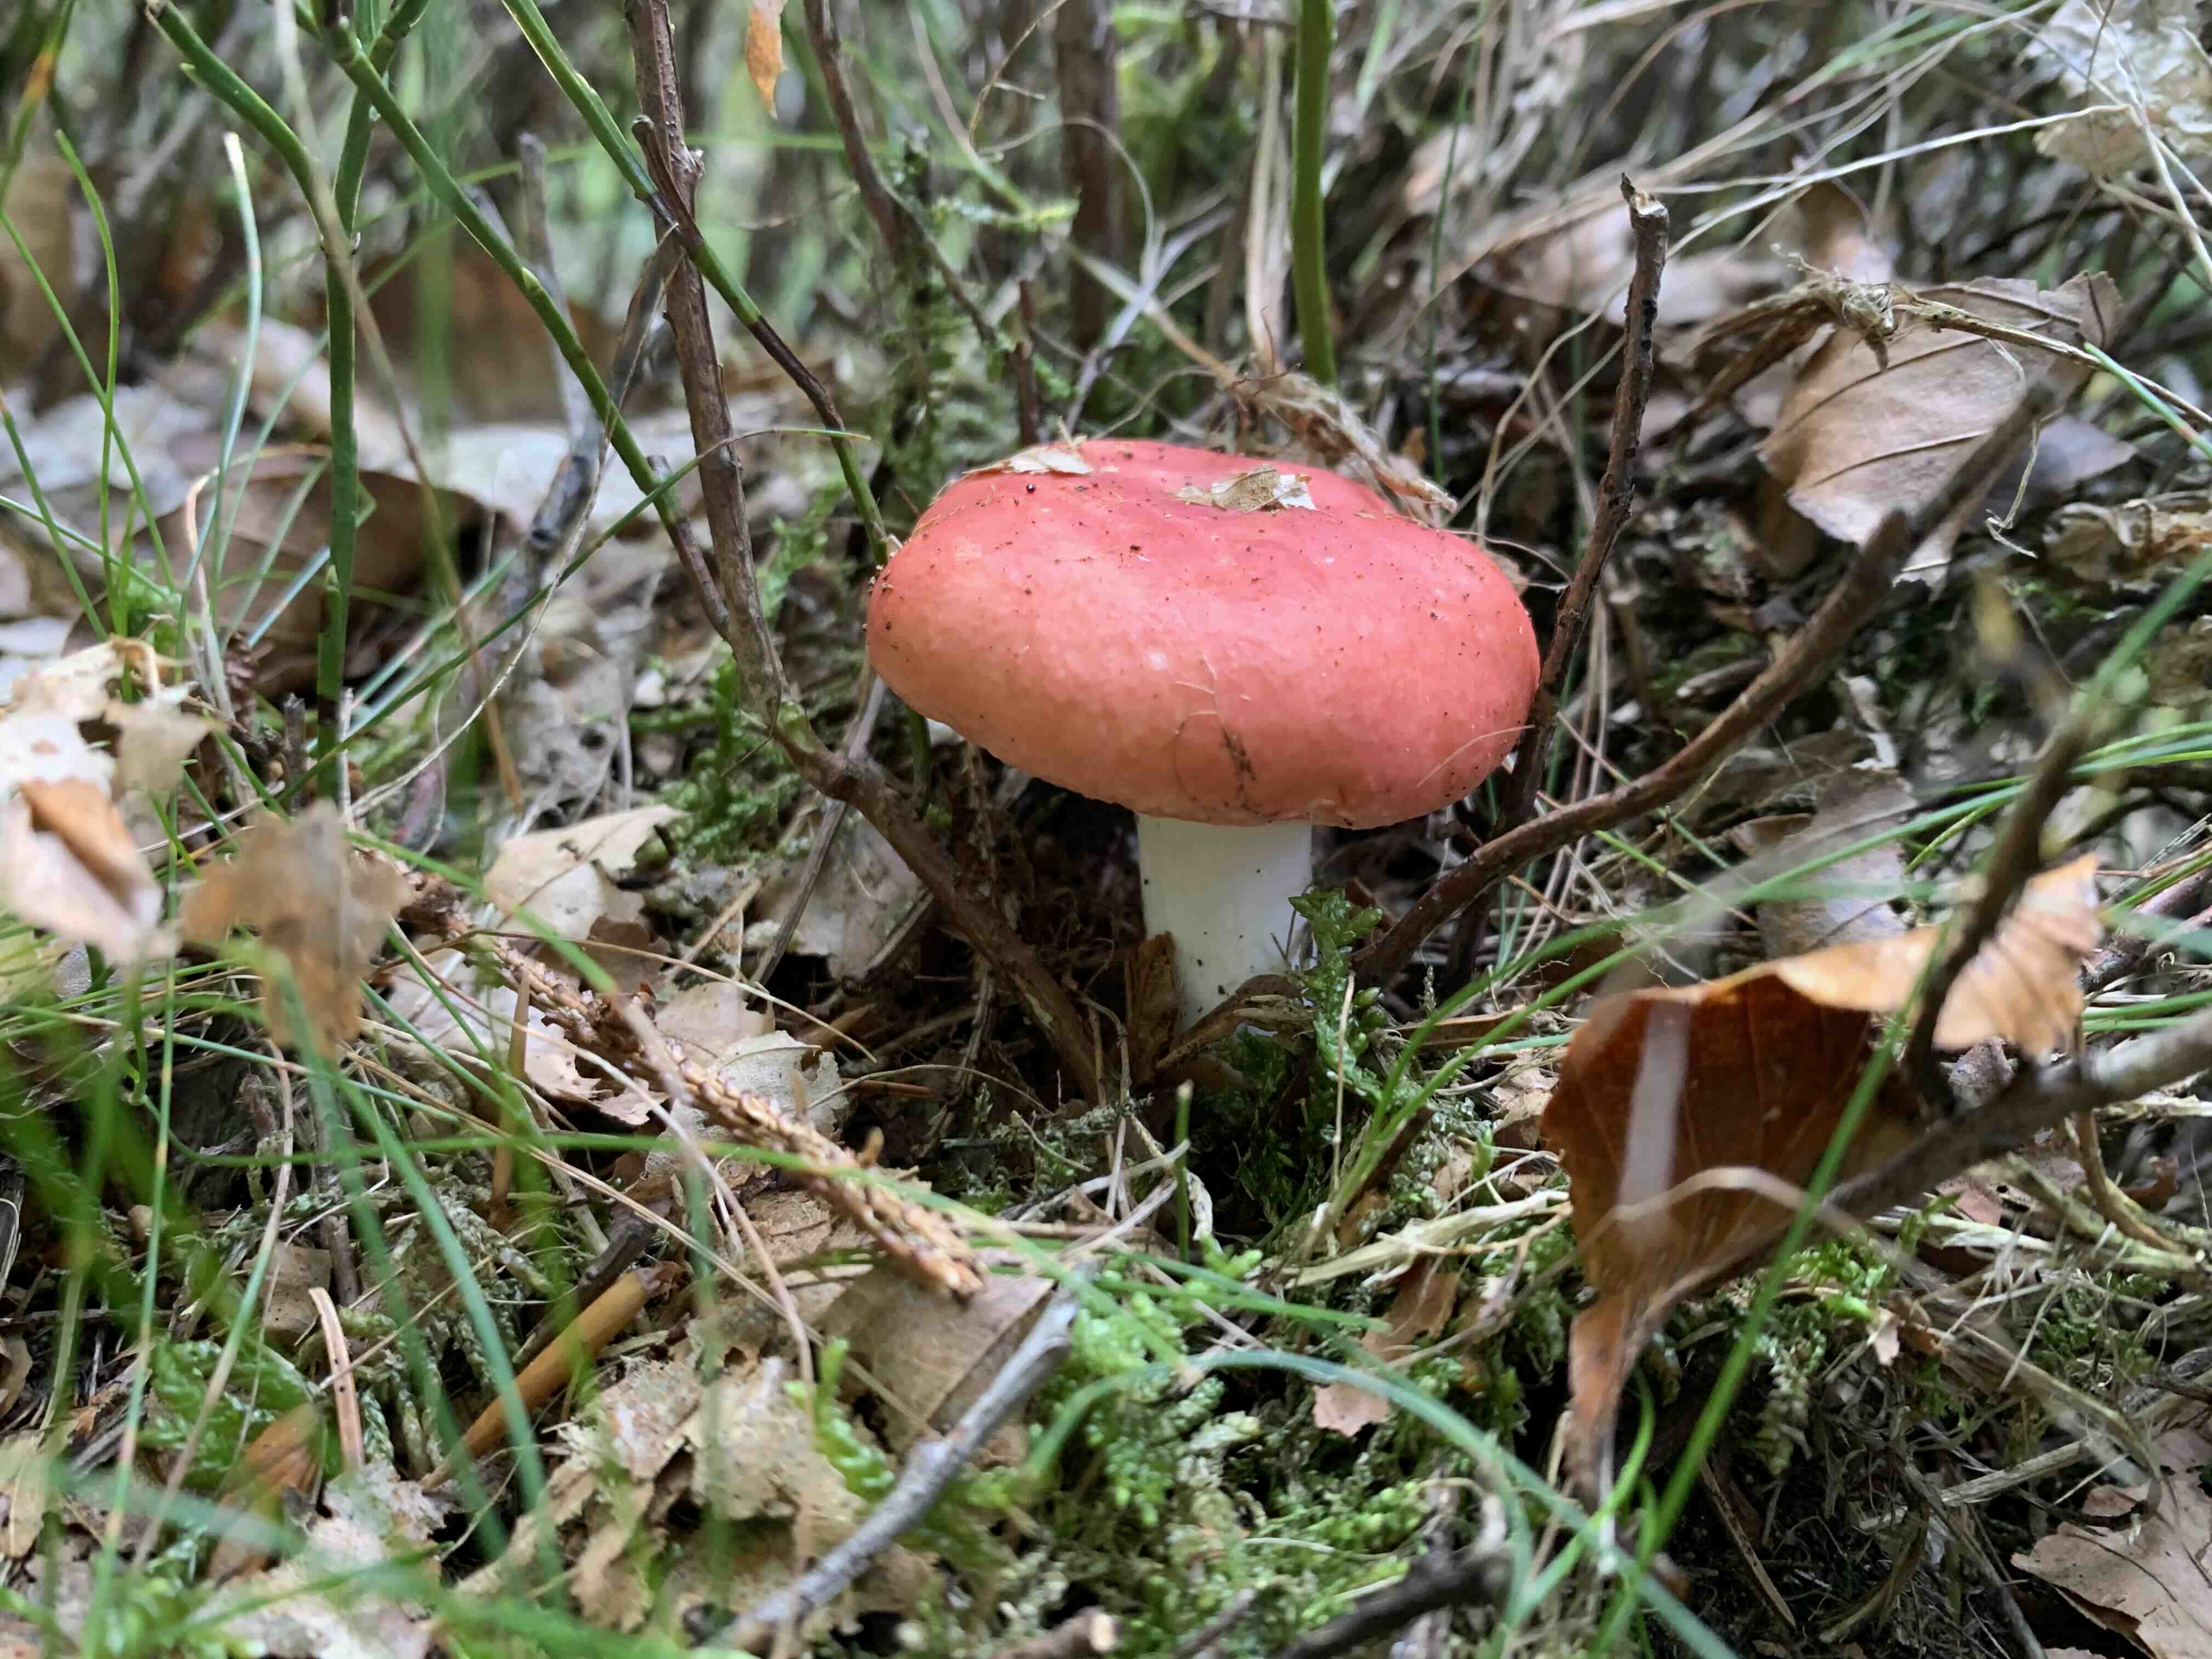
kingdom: Fungi
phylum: Basidiomycota
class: Agaricomycetes
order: Russulales
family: Russulaceae
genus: Russula
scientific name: Russula silvestris
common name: mellemstor gift-skørhat
